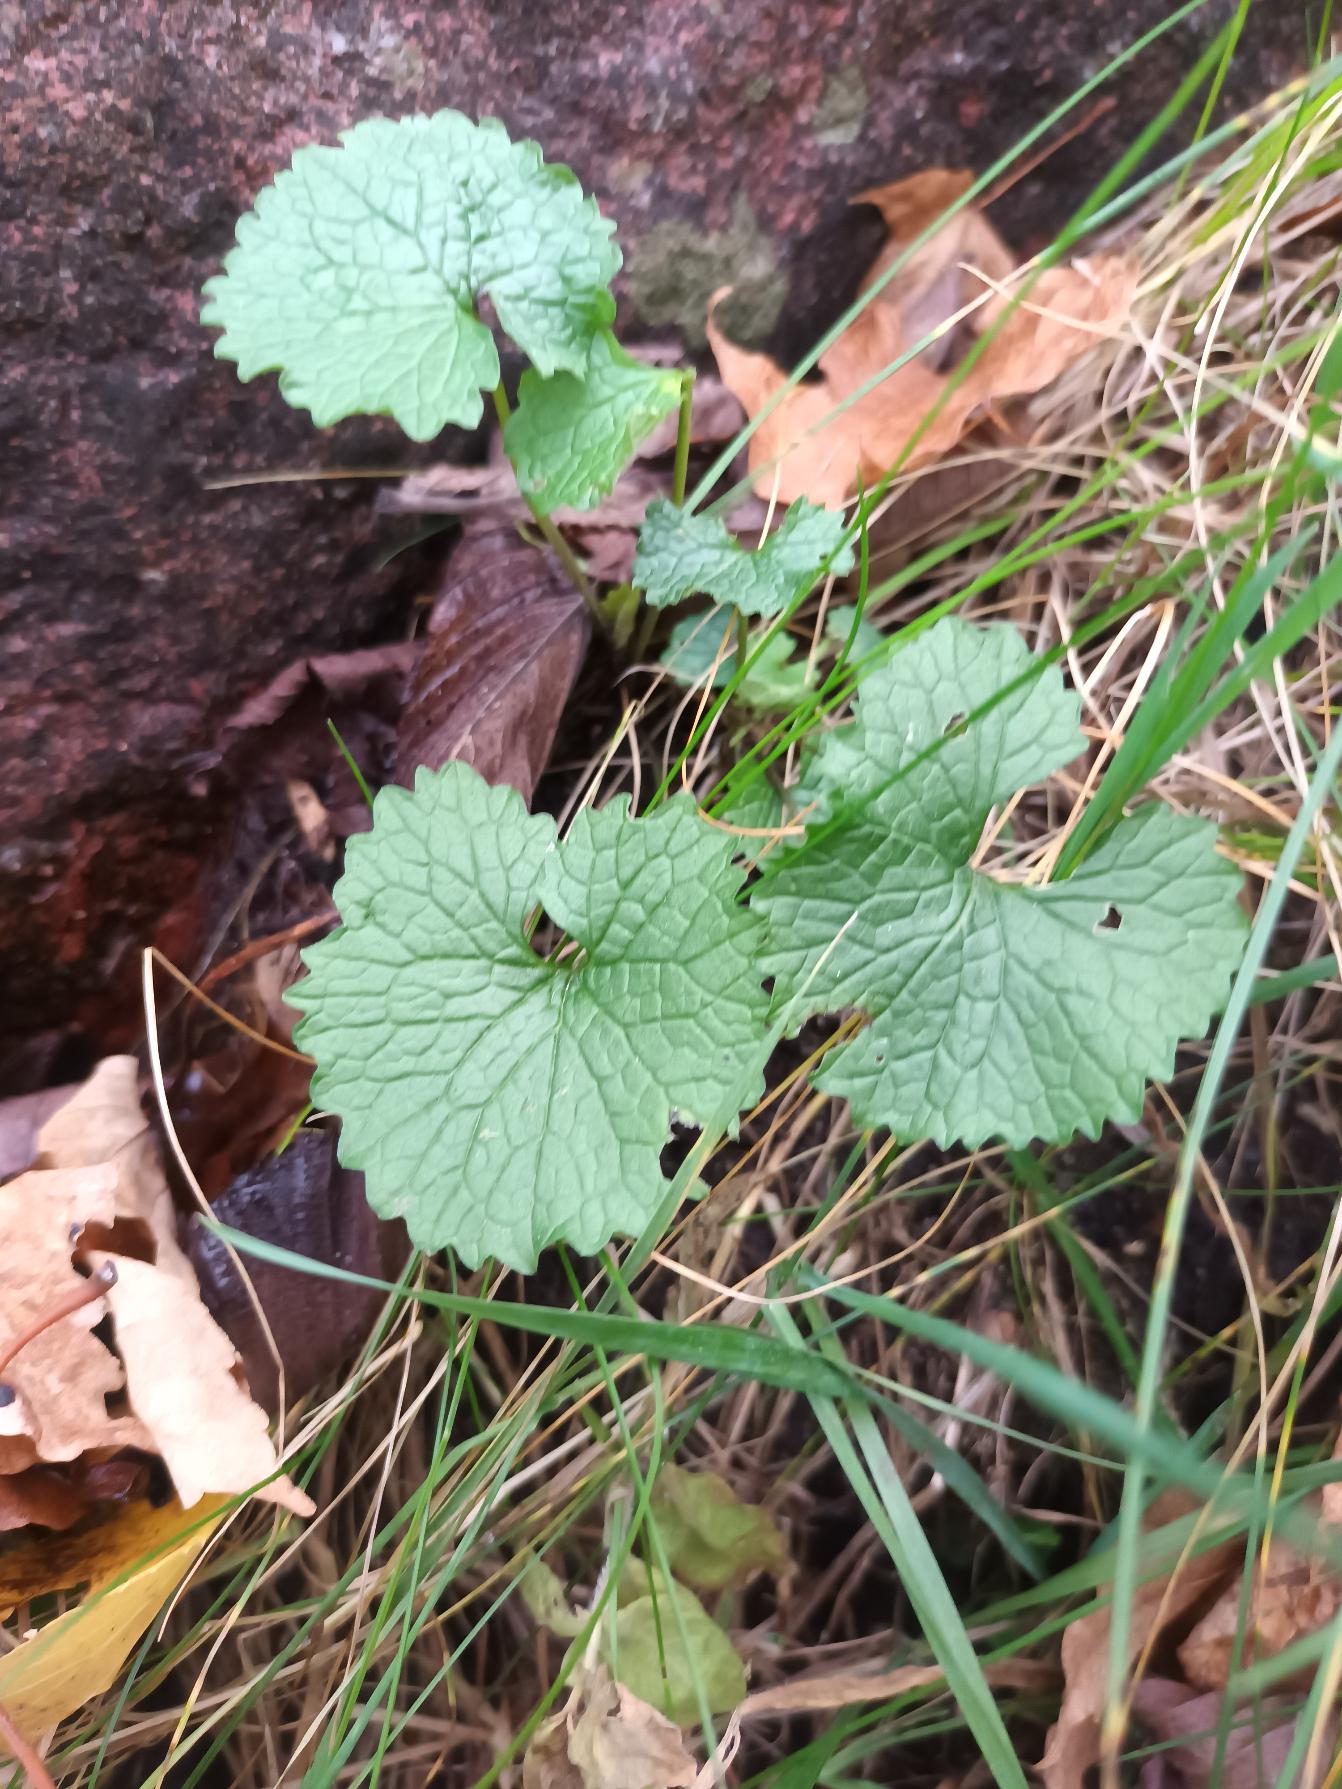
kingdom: Plantae
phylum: Tracheophyta
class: Magnoliopsida
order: Brassicales
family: Brassicaceae
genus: Alliaria
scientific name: Alliaria petiolata
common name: Løgkarse
